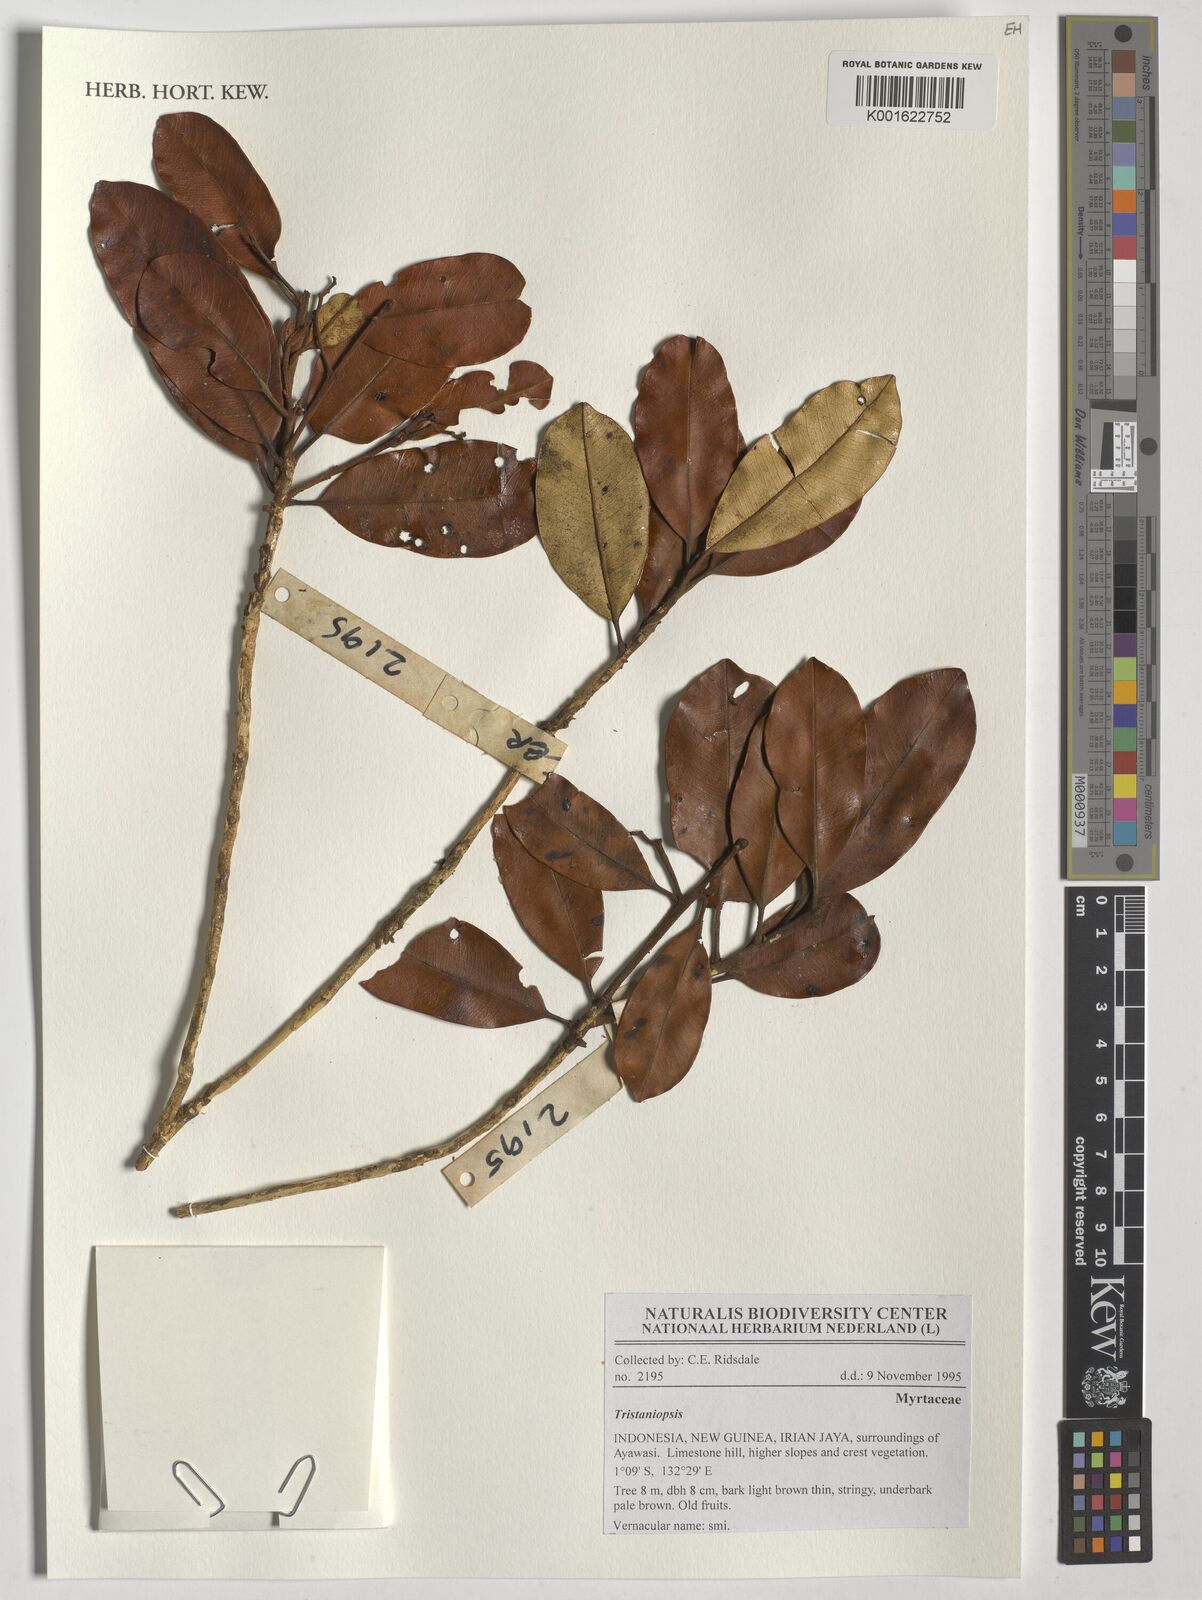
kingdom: Plantae
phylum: Tracheophyta
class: Magnoliopsida
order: Myrtales
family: Myrtaceae
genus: Tristaniopsis
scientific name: Tristaniopsis
